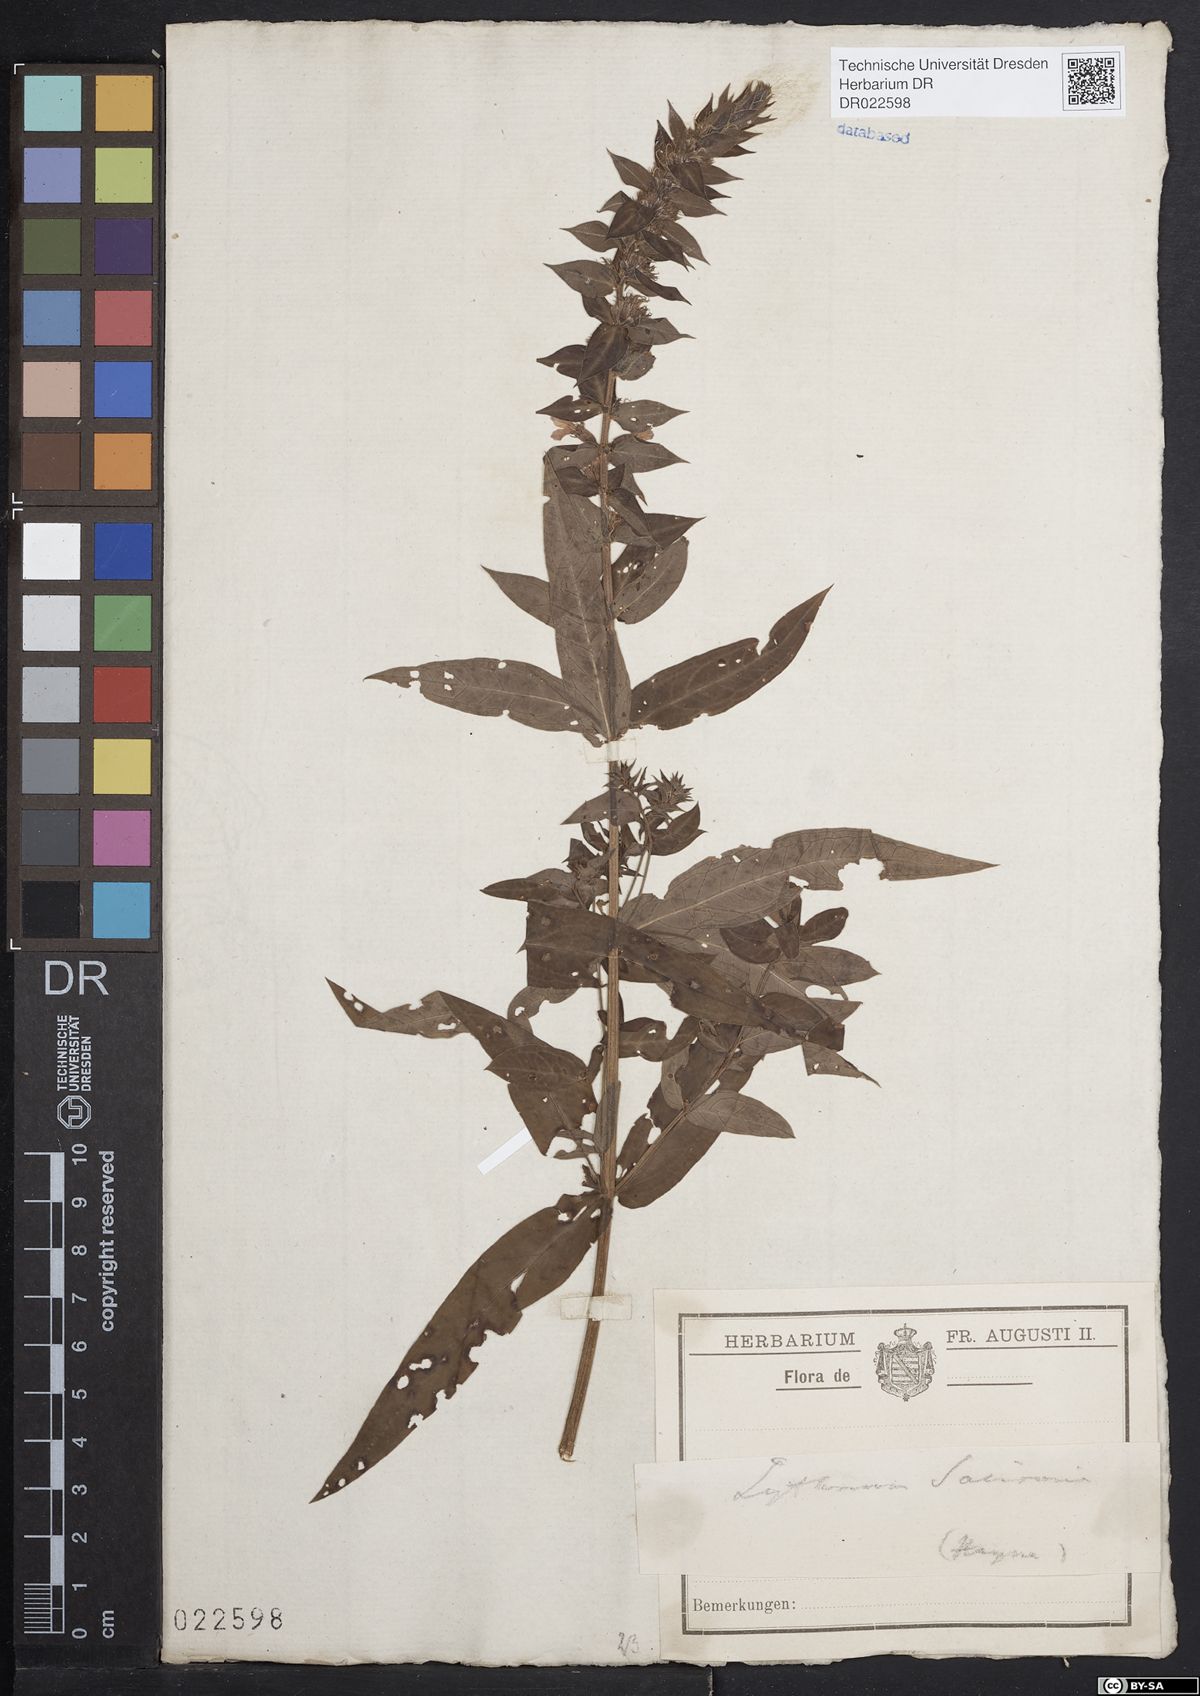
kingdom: Plantae
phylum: Tracheophyta
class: Magnoliopsida
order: Myrtales
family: Lythraceae
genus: Lythrum
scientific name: Lythrum salicaria
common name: Purple loosestrife
